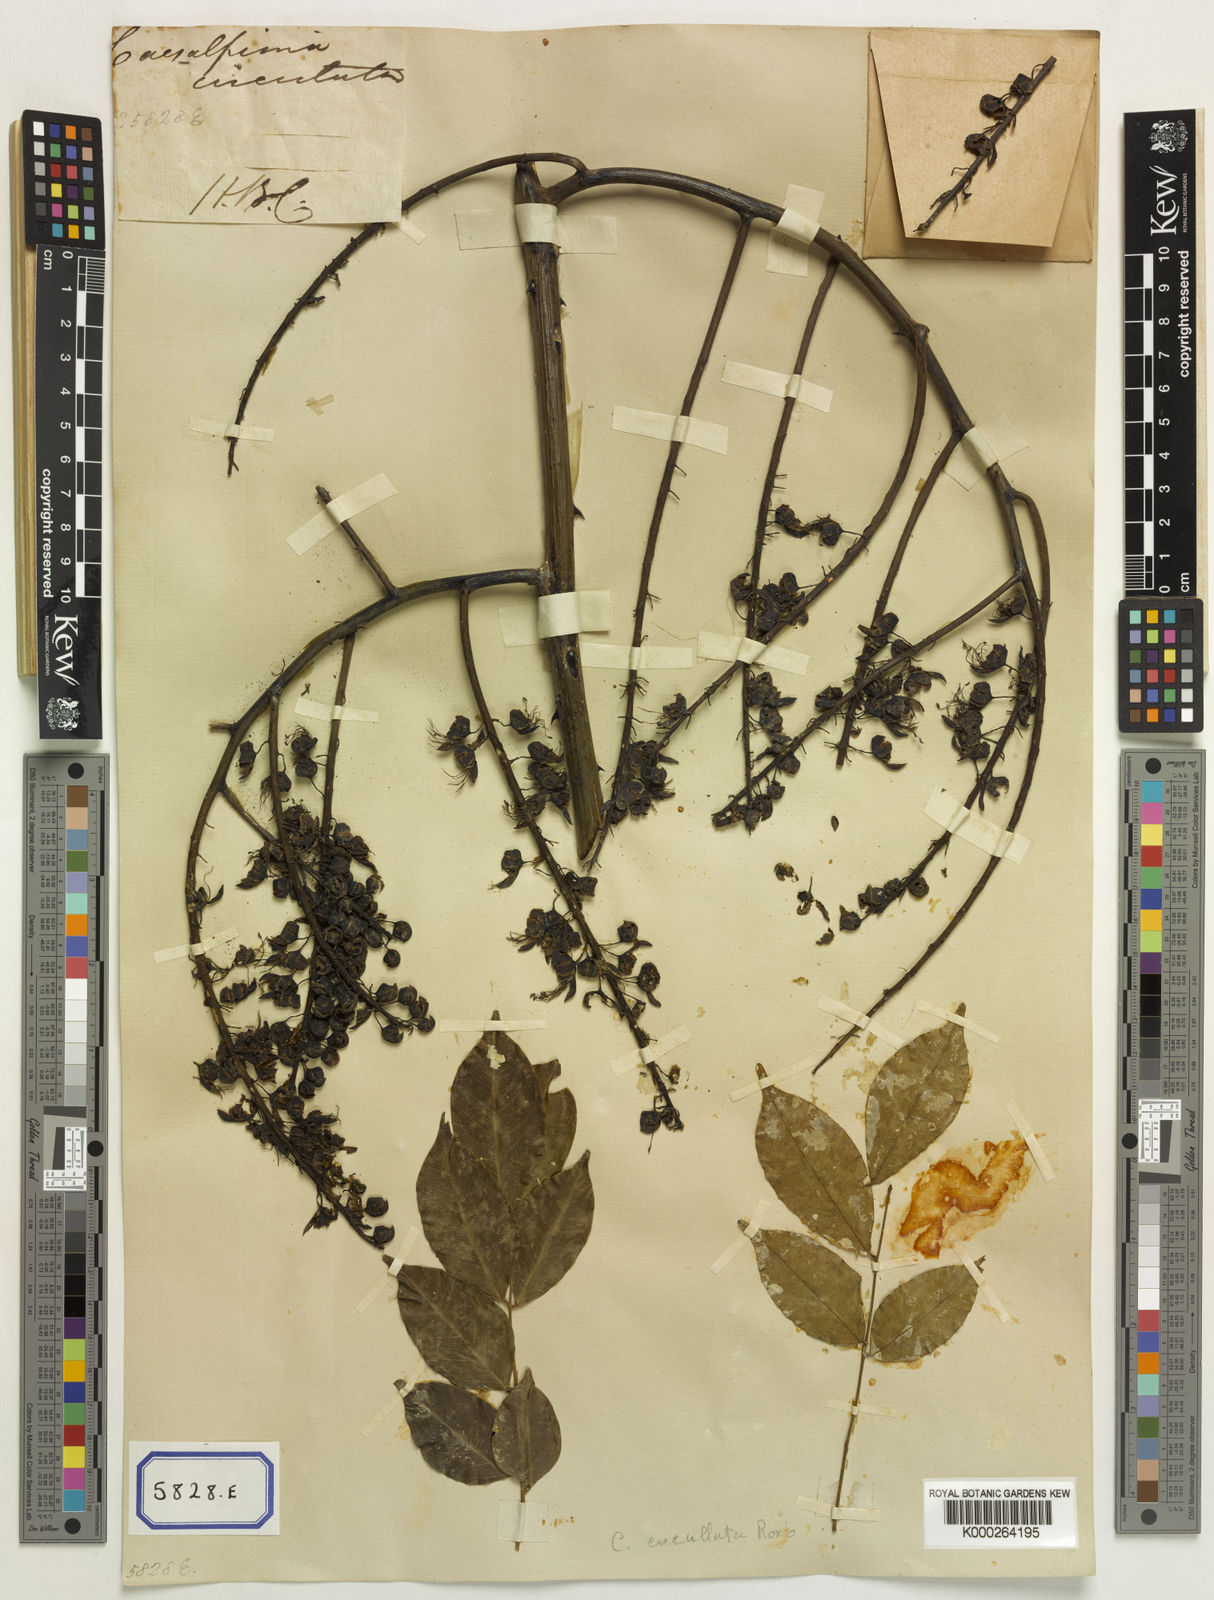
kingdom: Plantae
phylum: Tracheophyta
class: Magnoliopsida
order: Fabales
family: Fabaceae
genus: Mezoneuron
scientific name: Mezoneuron cucullatum
